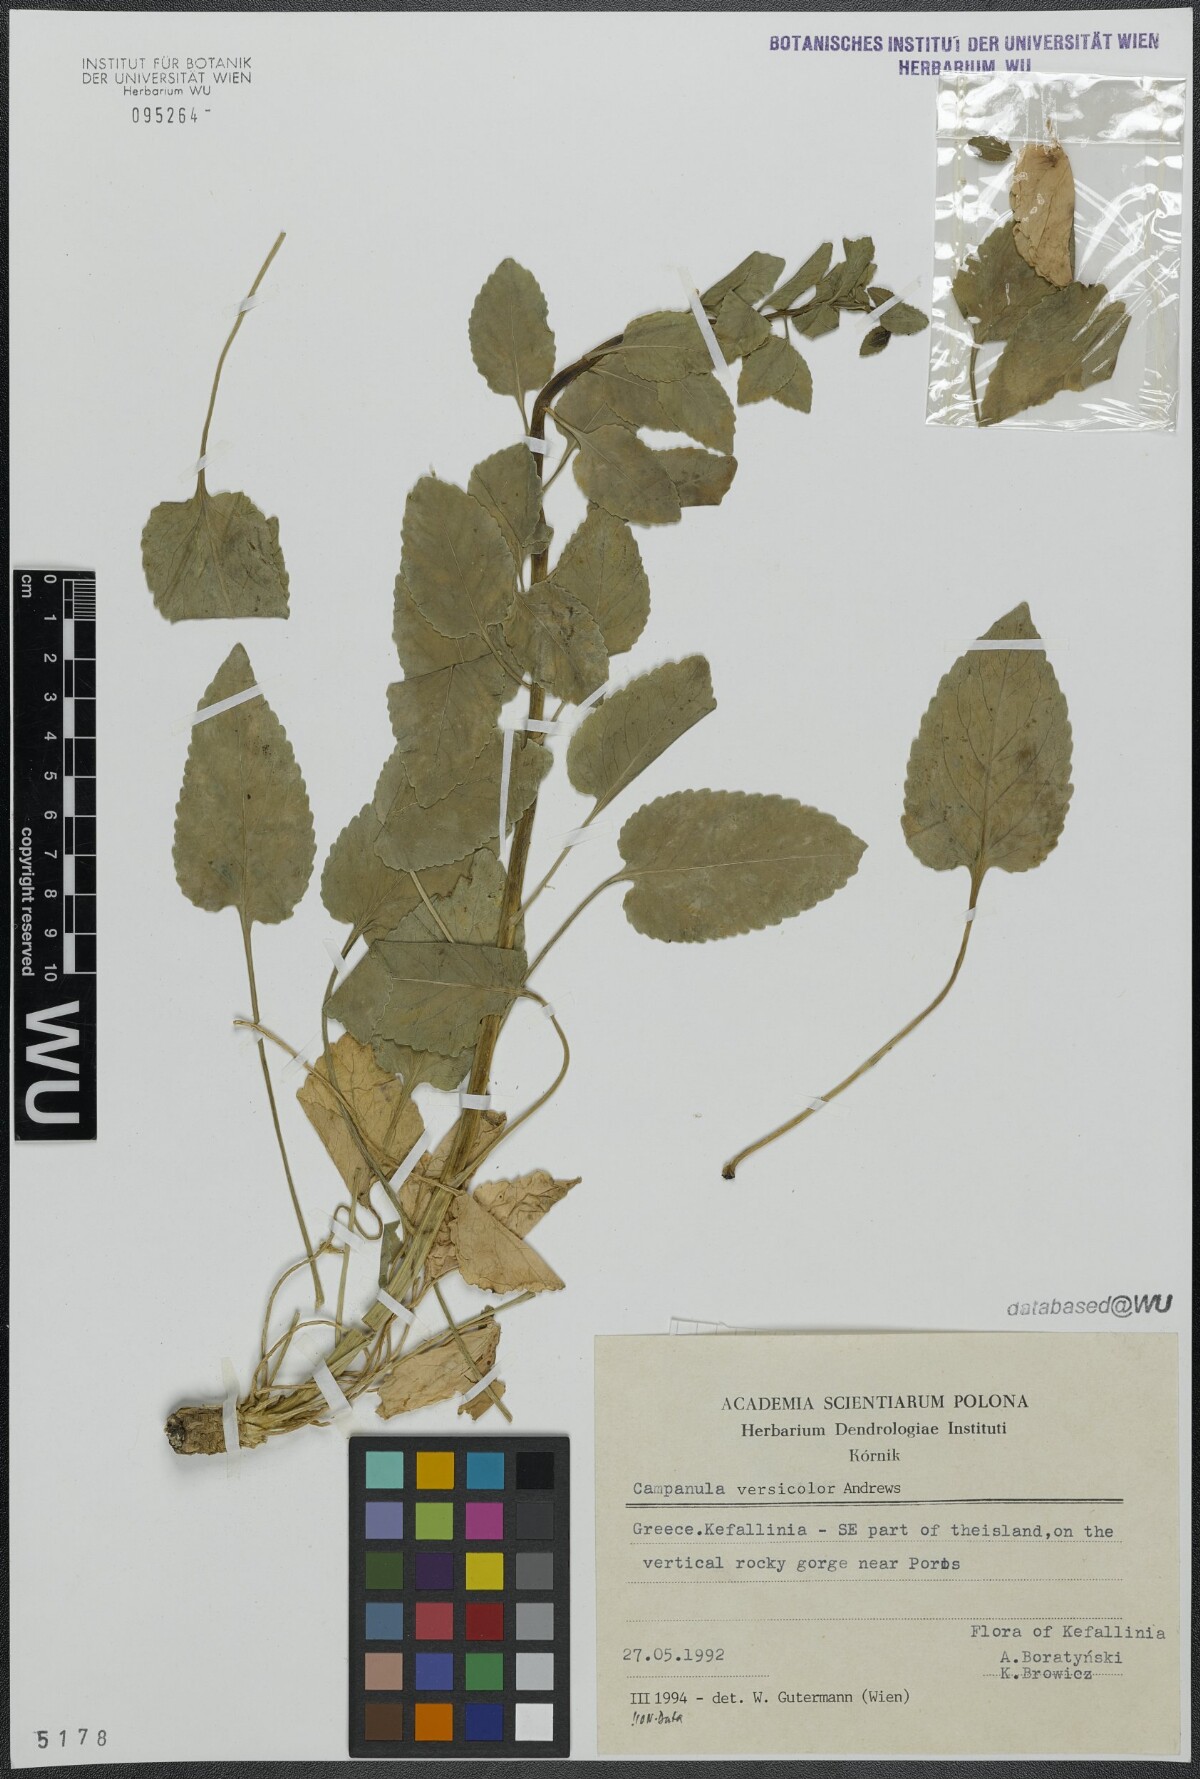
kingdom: Plantae
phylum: Tracheophyta
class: Magnoliopsida
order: Asterales
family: Campanulaceae
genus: Campanula
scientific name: Campanula versicolor
